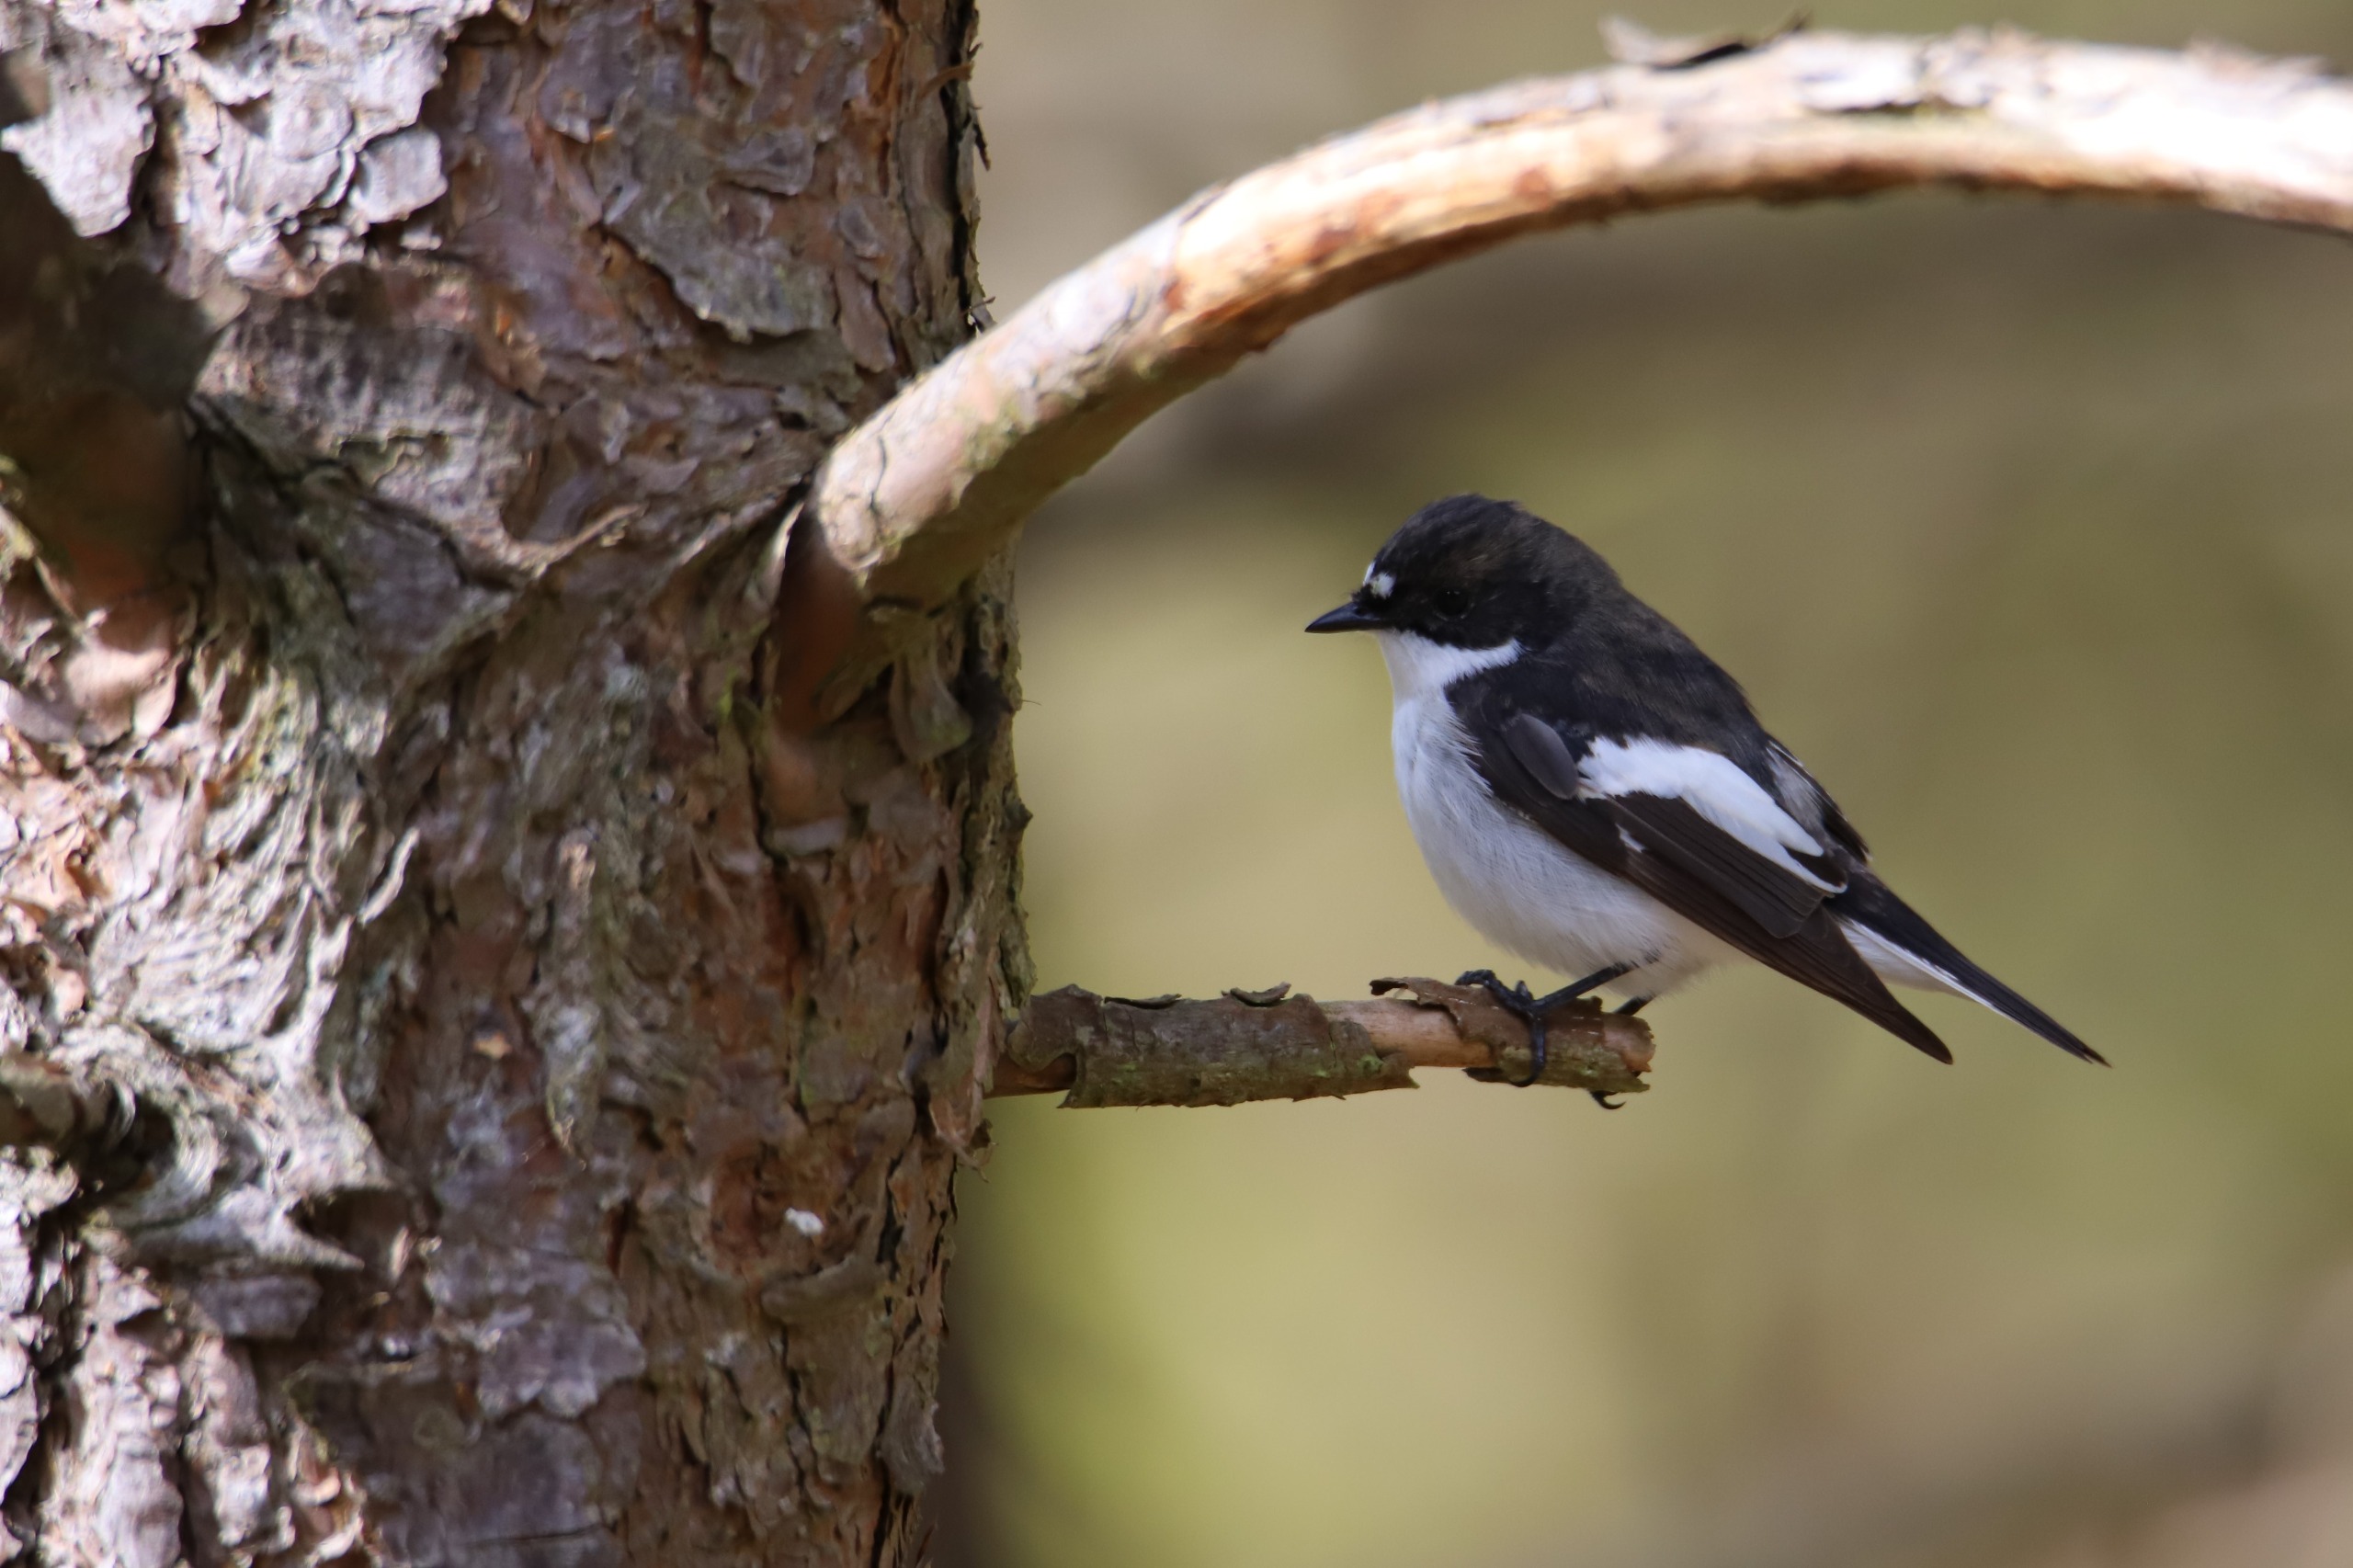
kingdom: Animalia
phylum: Chordata
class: Aves
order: Passeriformes
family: Muscicapidae
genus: Ficedula
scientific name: Ficedula hypoleuca
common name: Broget fluesnapper
